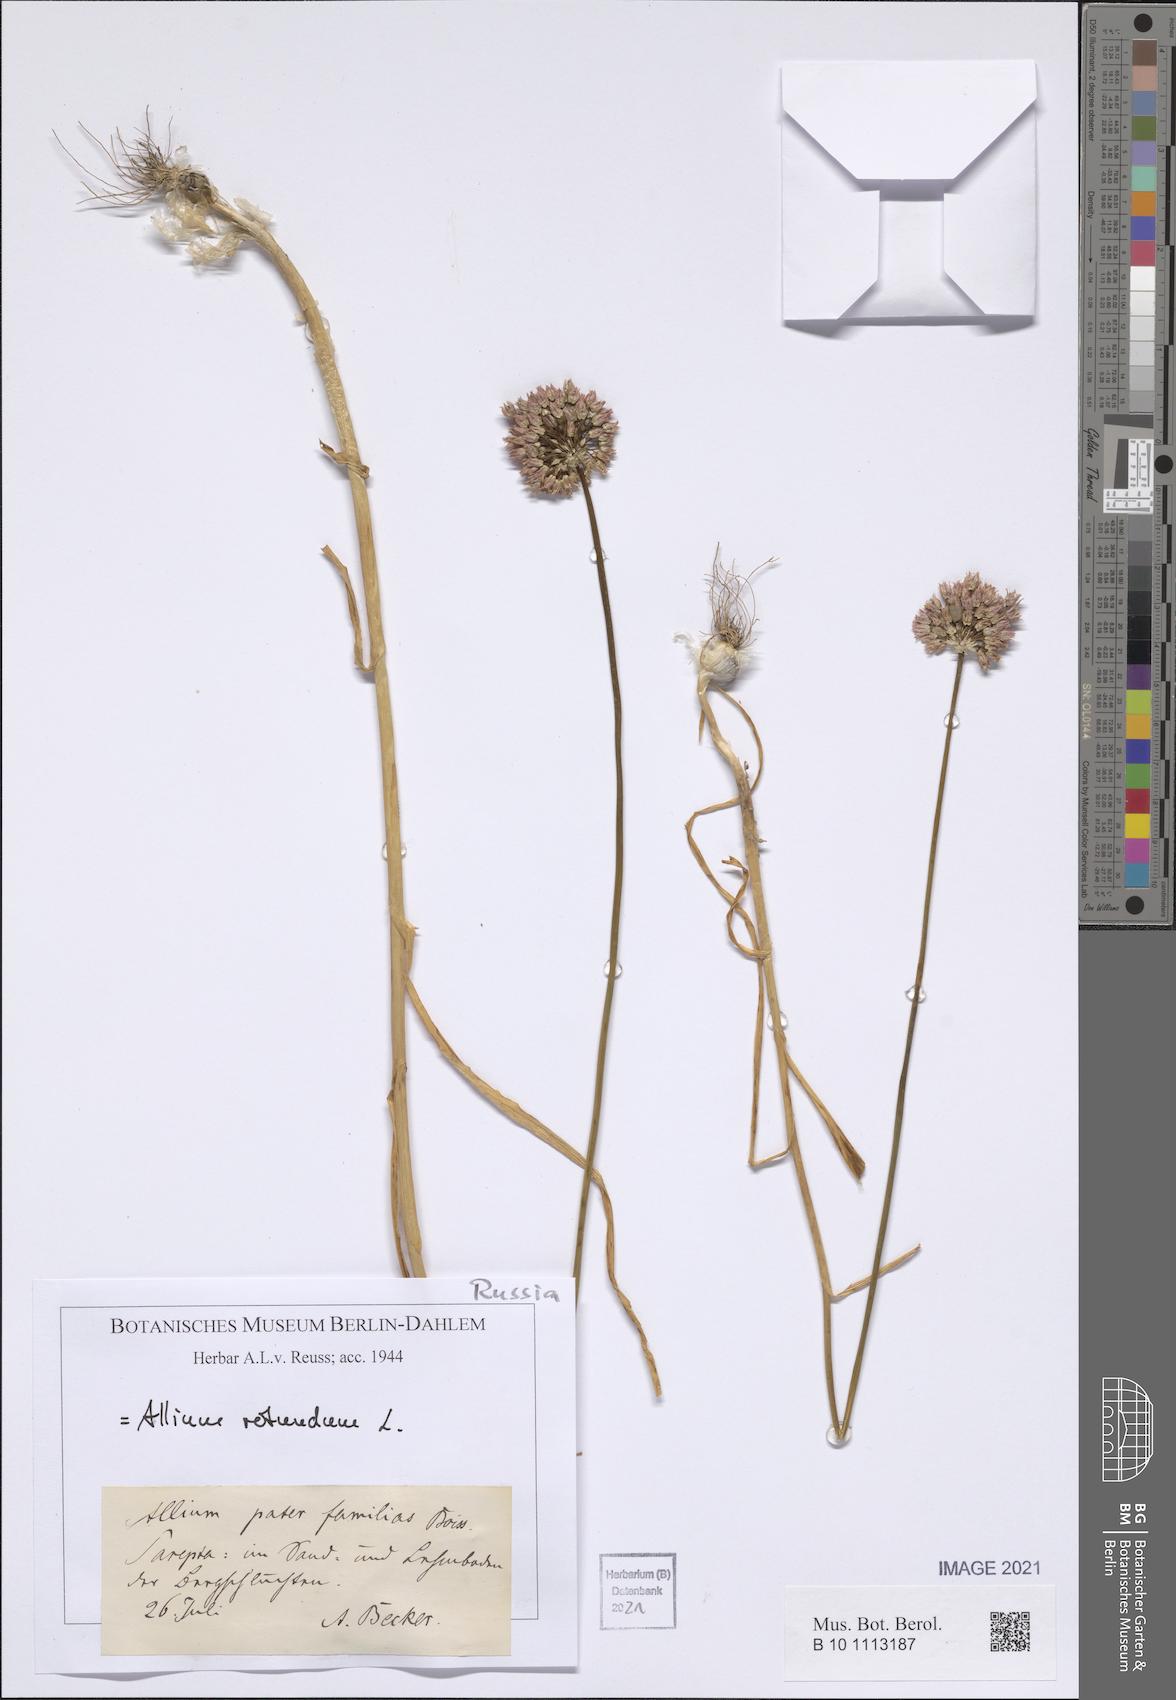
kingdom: Plantae
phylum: Tracheophyta
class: Liliopsida
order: Asparagales
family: Amaryllidaceae
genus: Allium
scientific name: Allium rotundum
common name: Sand leek
